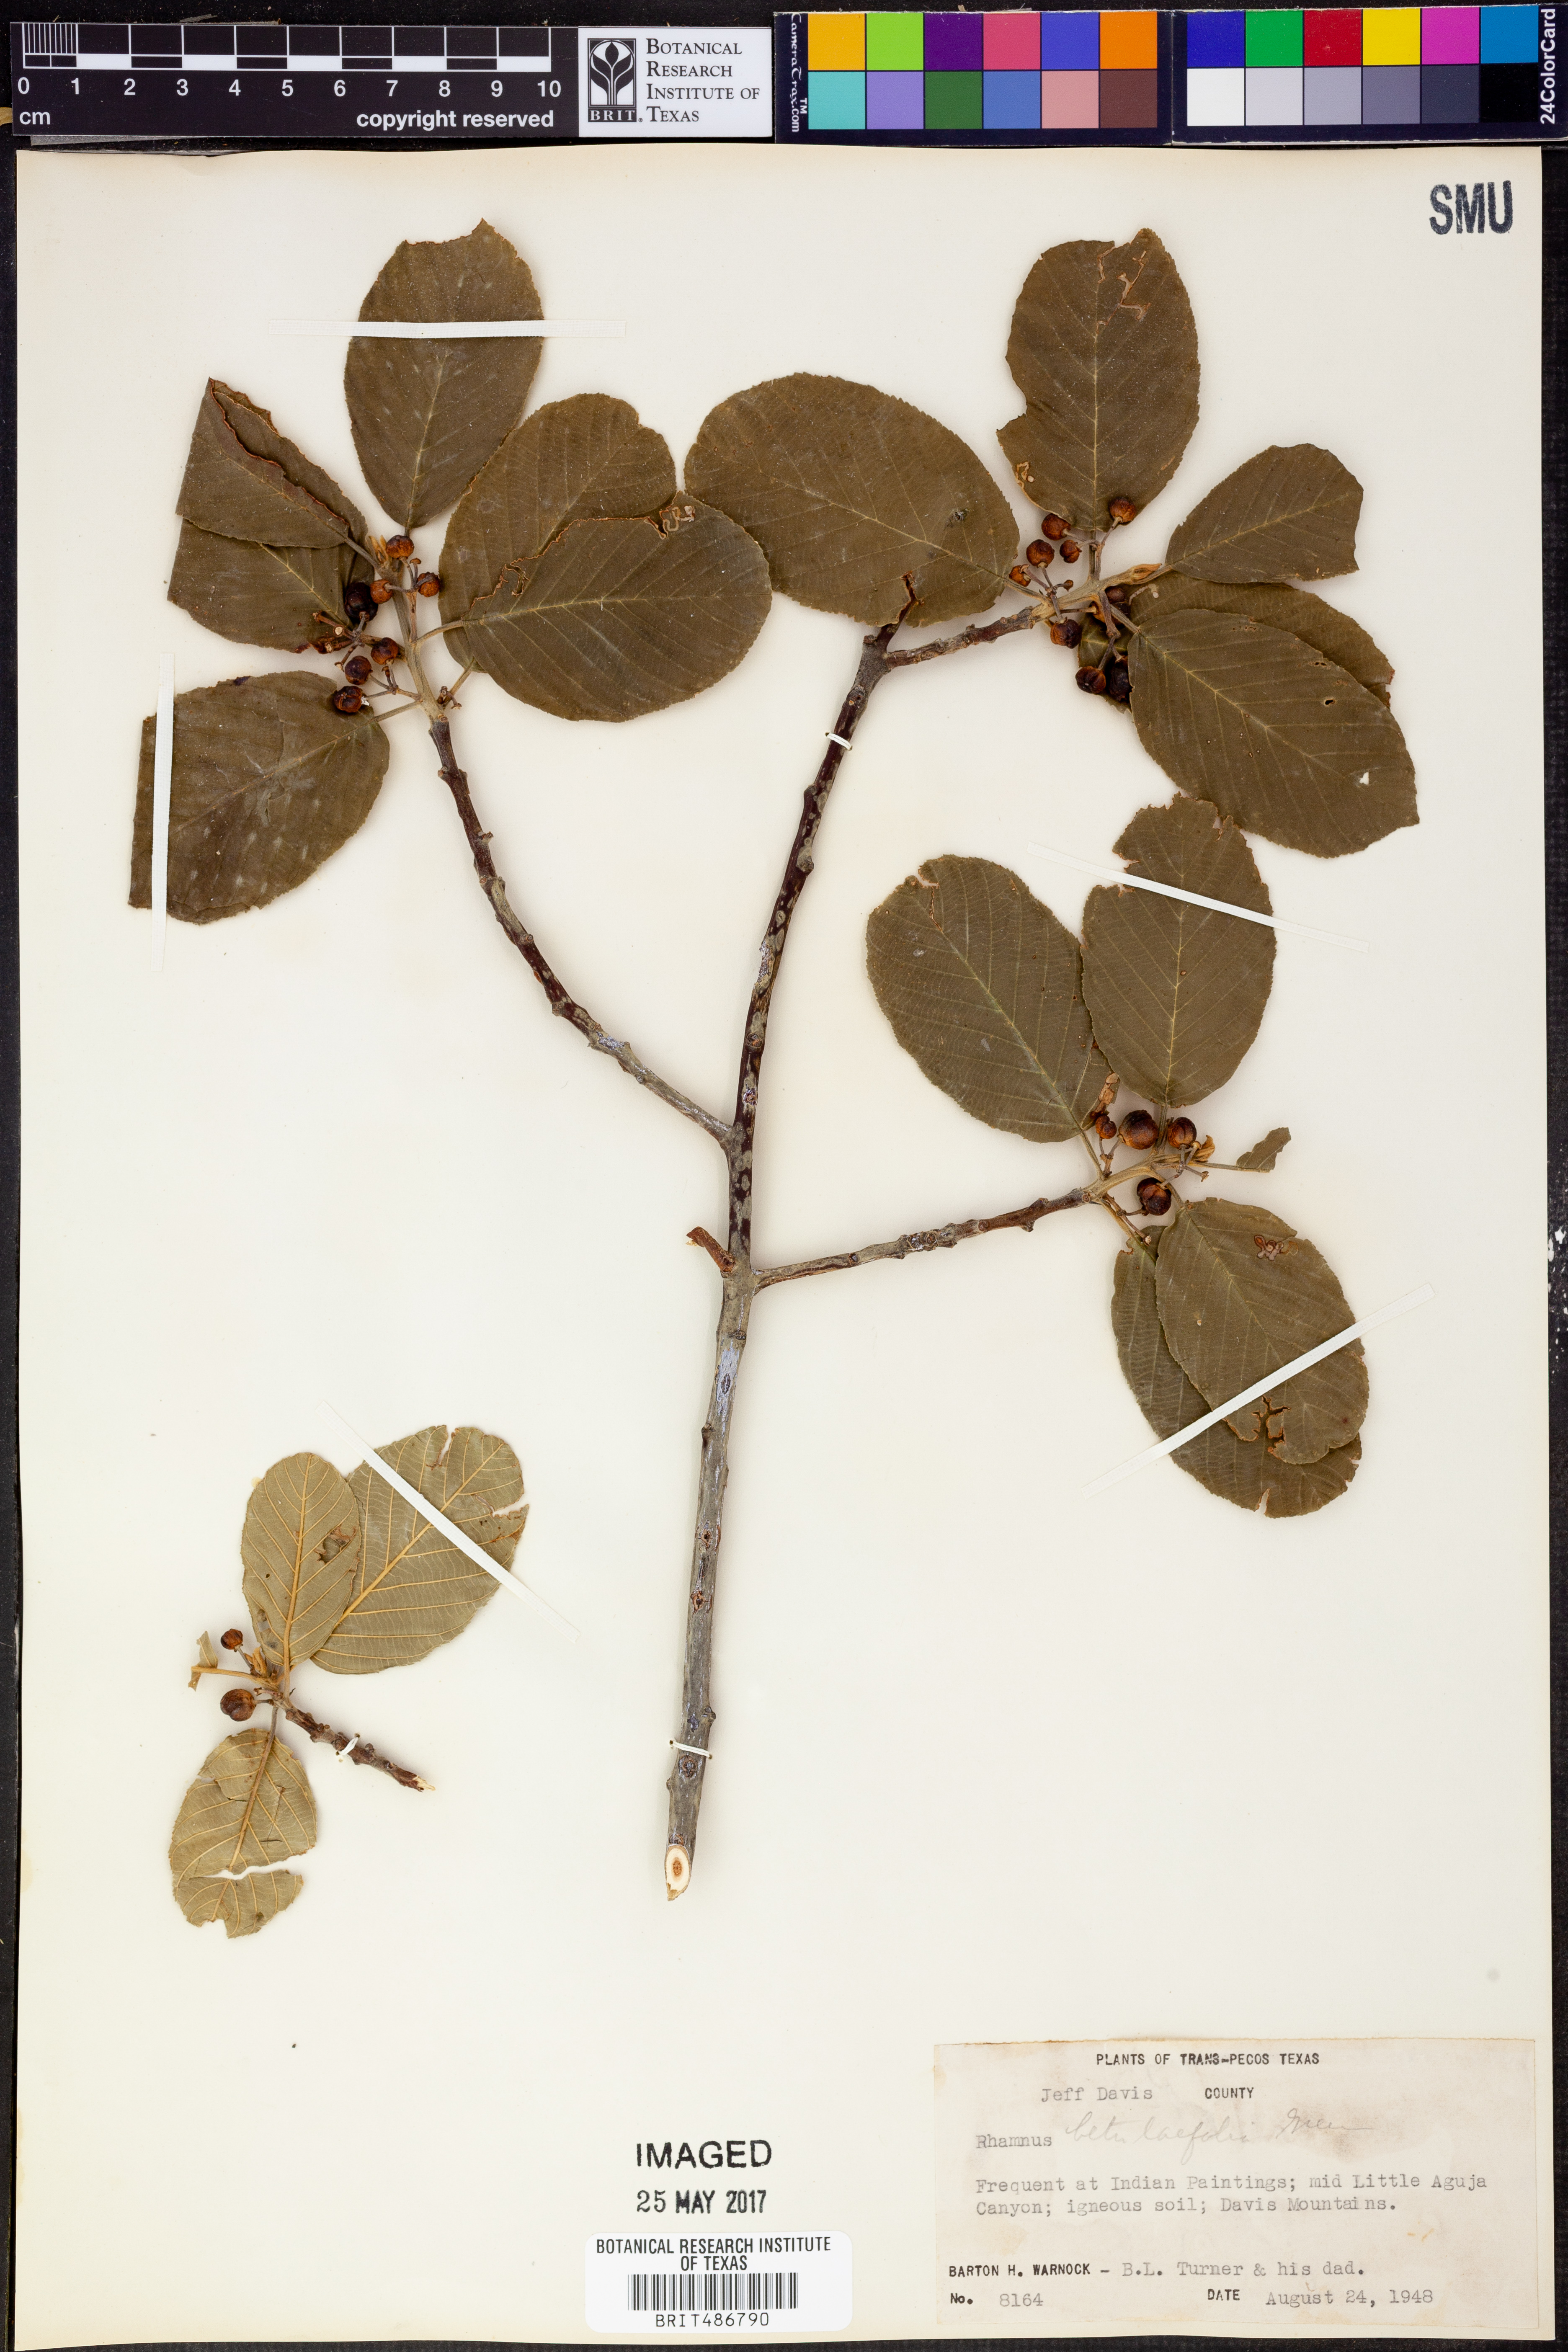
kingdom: Plantae
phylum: Tracheophyta
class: Magnoliopsida
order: Rosales
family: Rhamnaceae
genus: Frangula
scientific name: Frangula azorica
